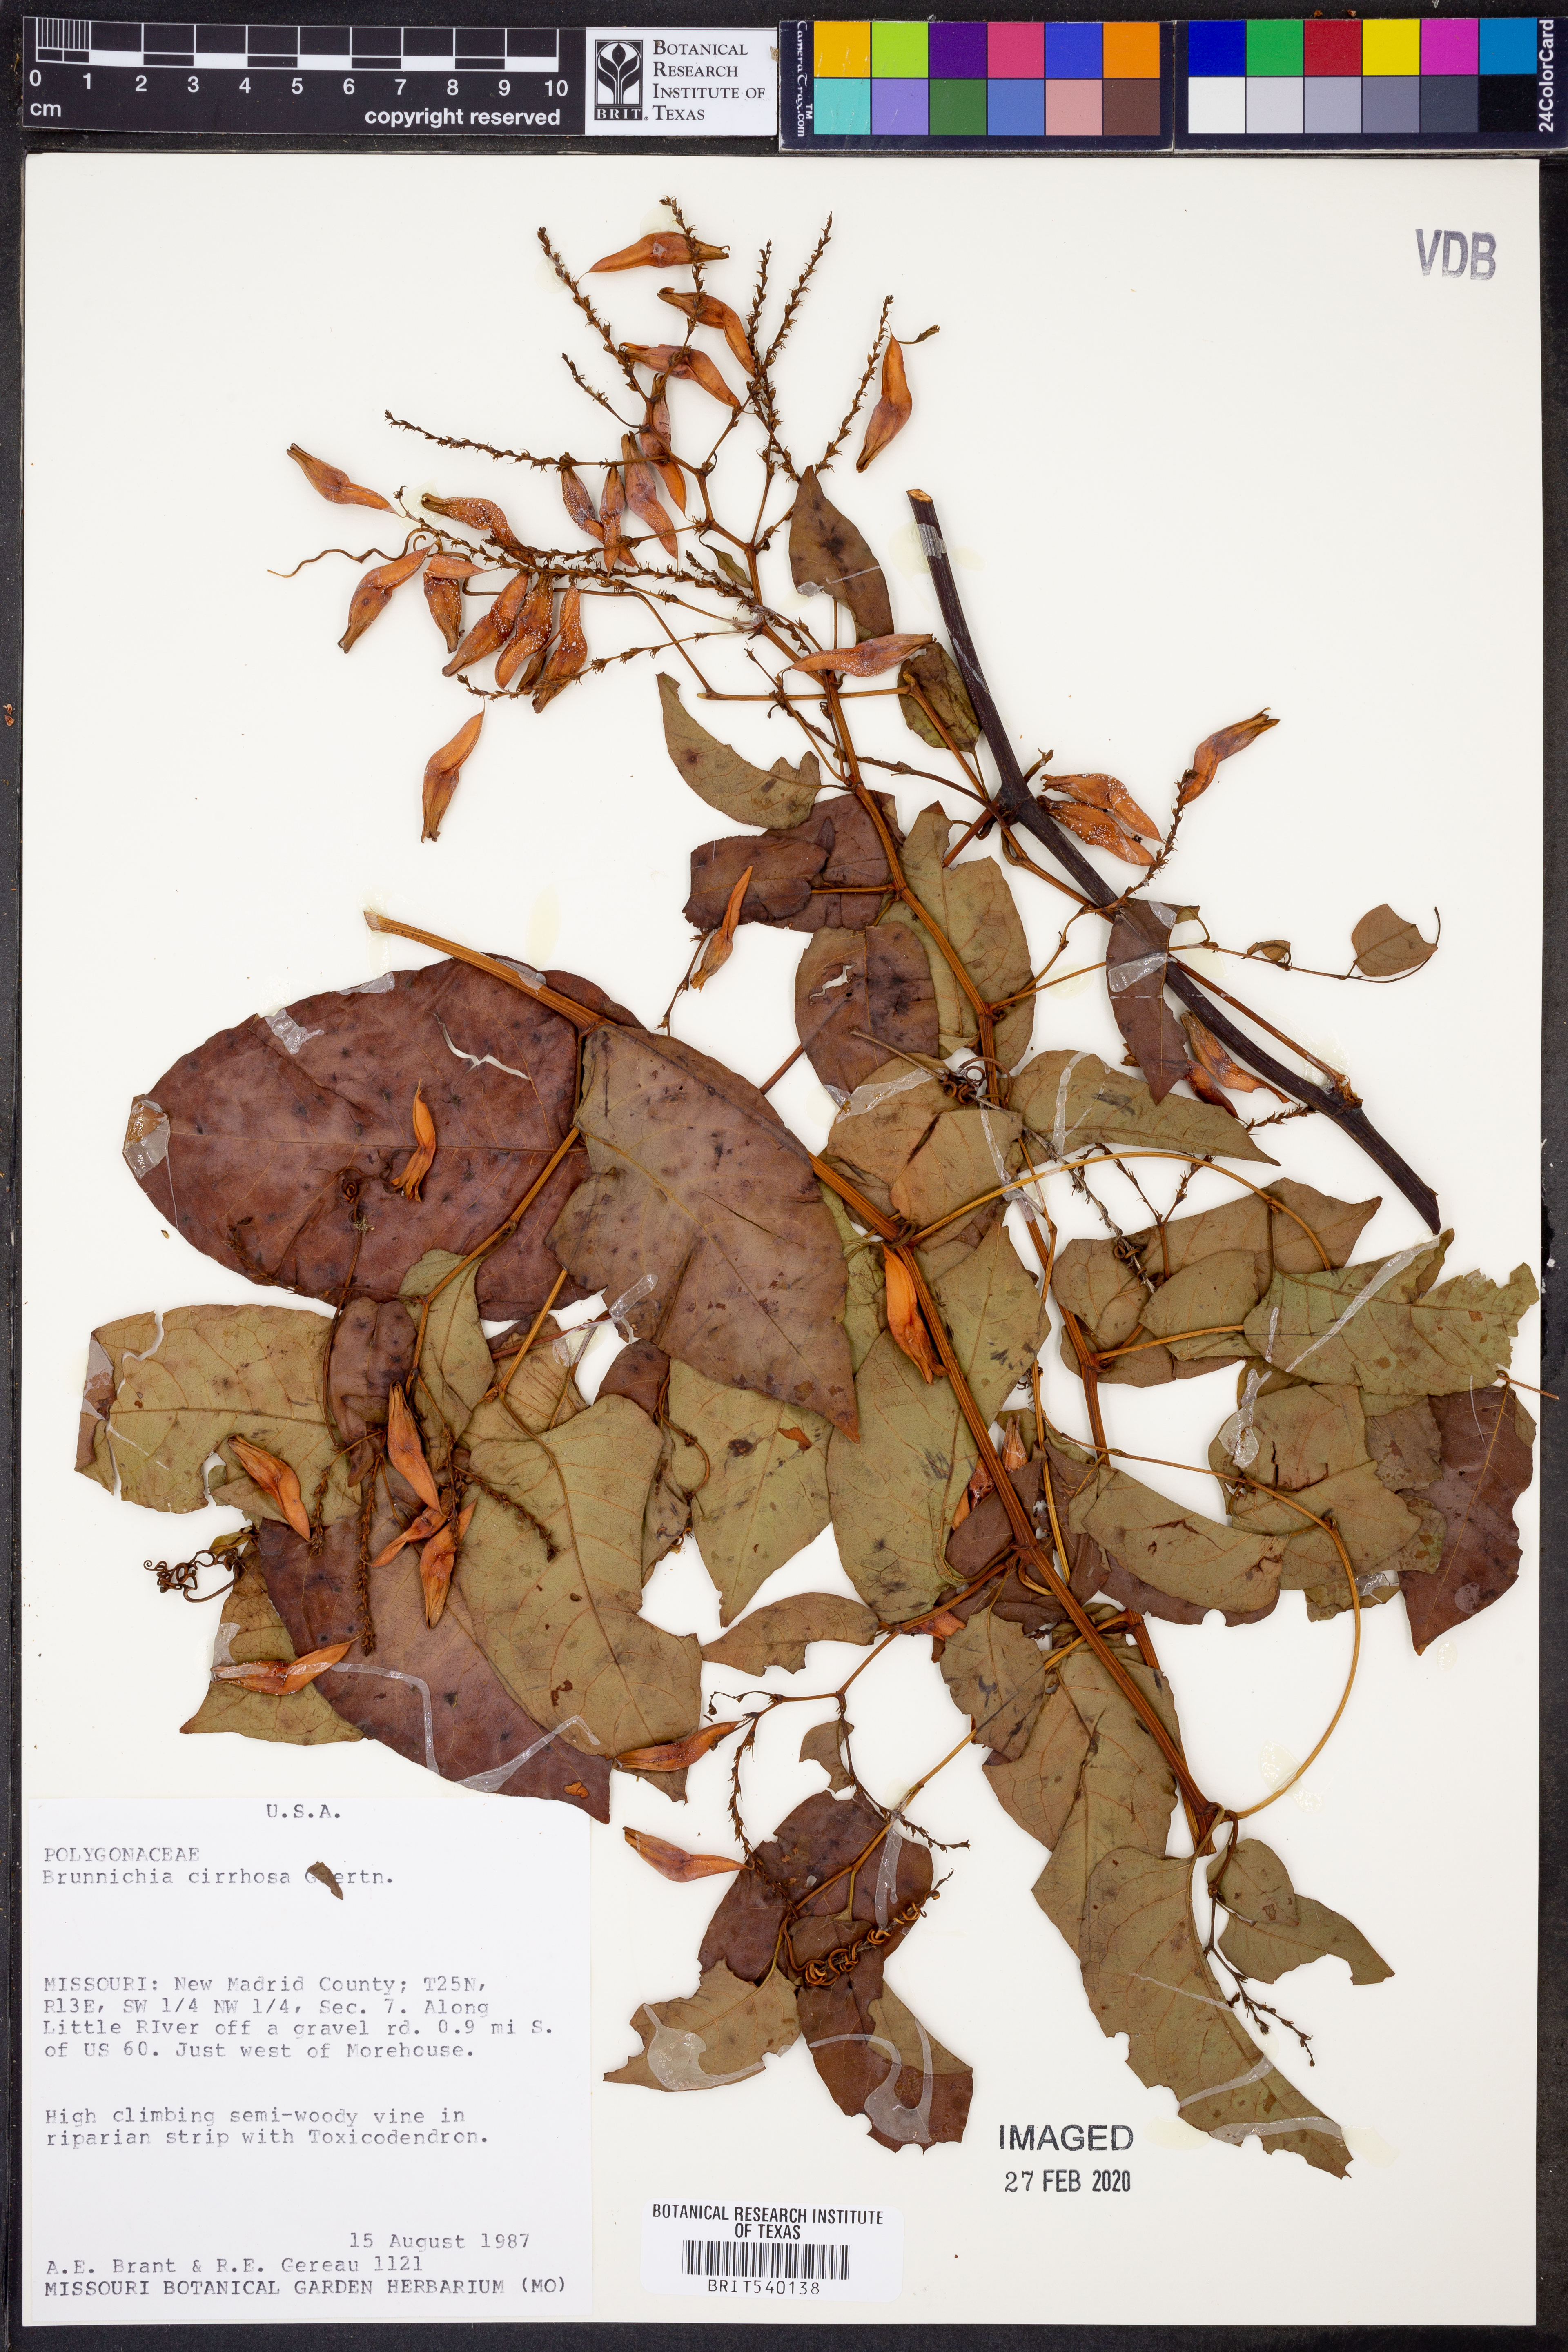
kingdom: Plantae
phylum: Tracheophyta
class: Magnoliopsida
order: Caryophyllales
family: Polygonaceae
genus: Brunnichia
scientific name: Brunnichia ovata
